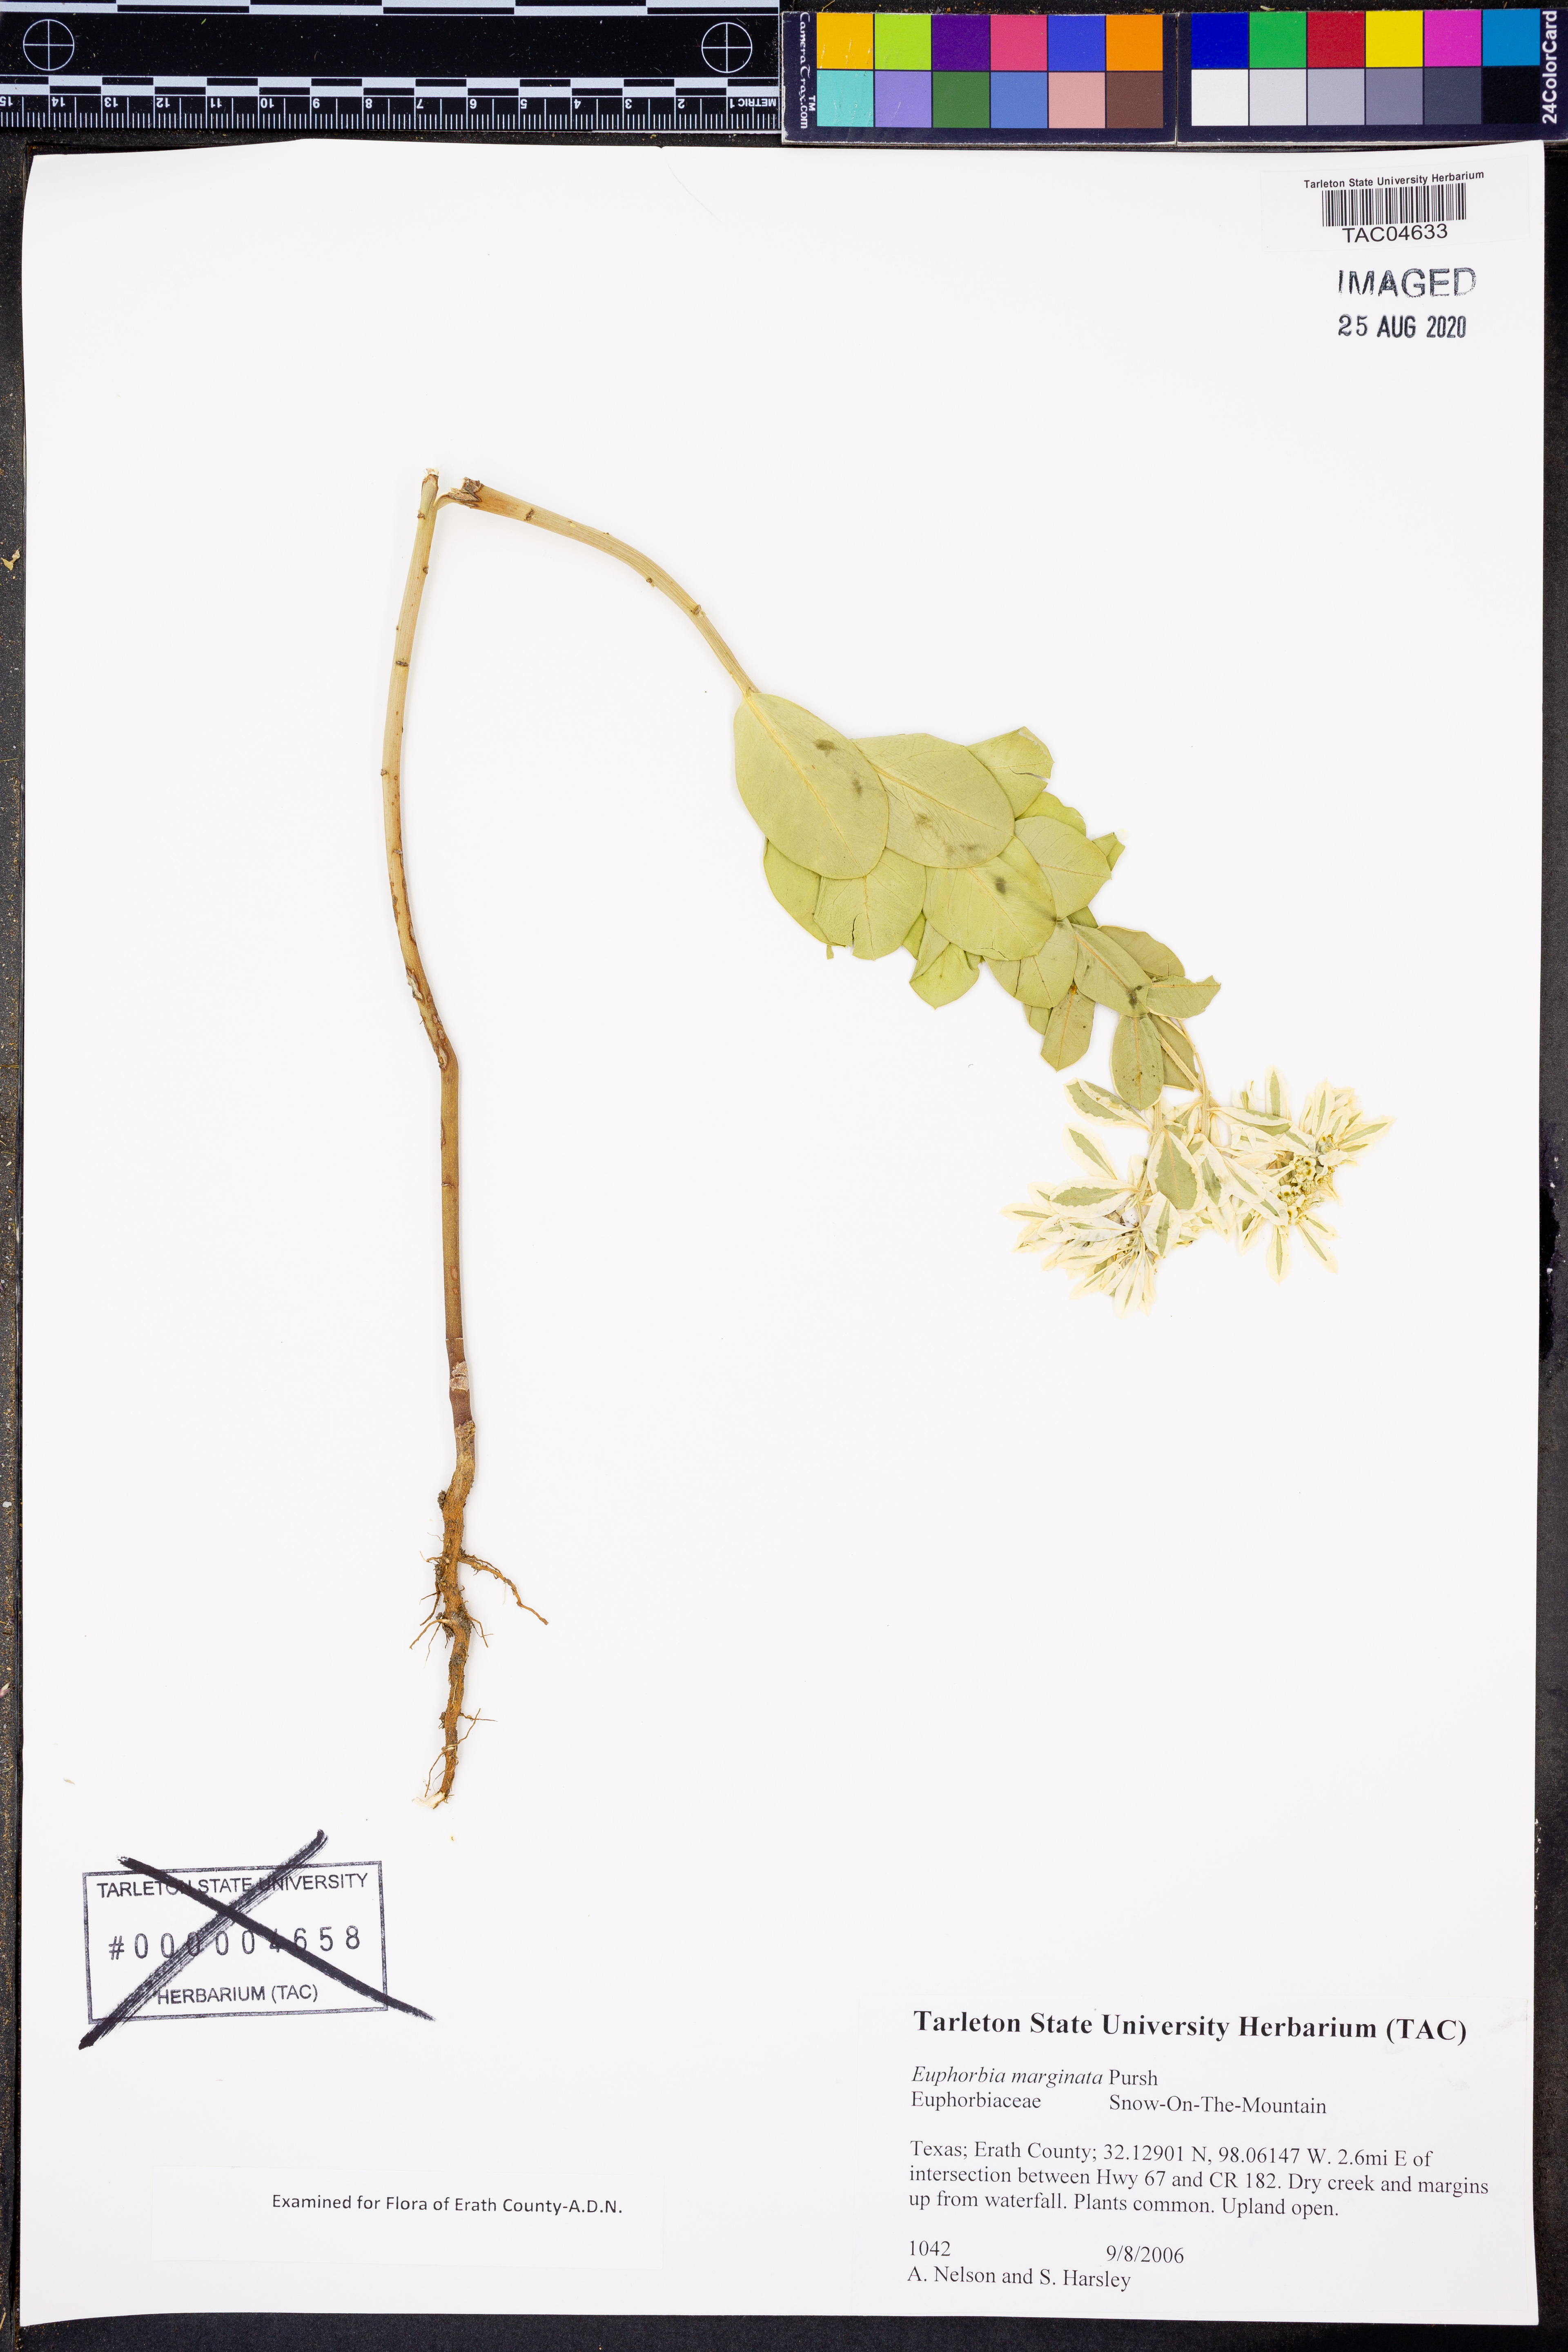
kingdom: Plantae
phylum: Tracheophyta
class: Magnoliopsida
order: Malpighiales
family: Euphorbiaceae
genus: Euphorbia
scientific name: Euphorbia marginata
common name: Ghostweed
